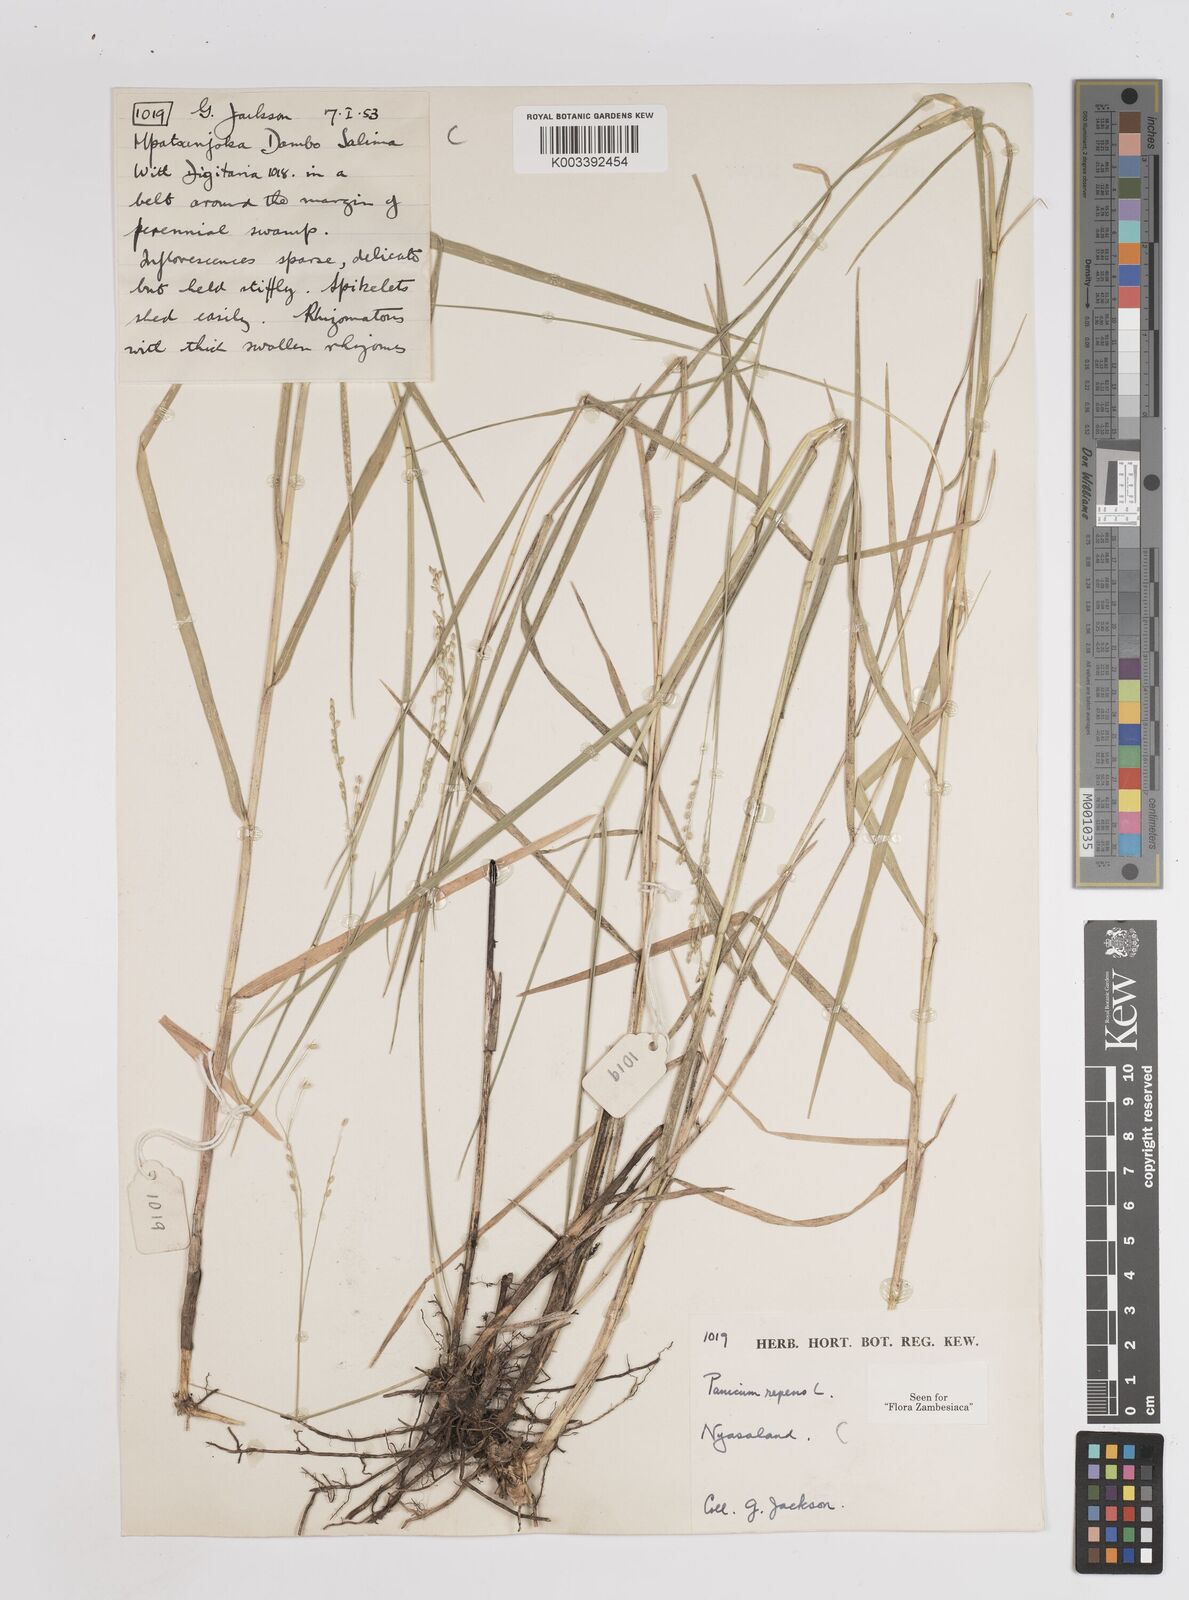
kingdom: Plantae
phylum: Tracheophyta
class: Liliopsida
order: Poales
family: Poaceae
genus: Panicum
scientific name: Panicum repens
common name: Torpedo grass
